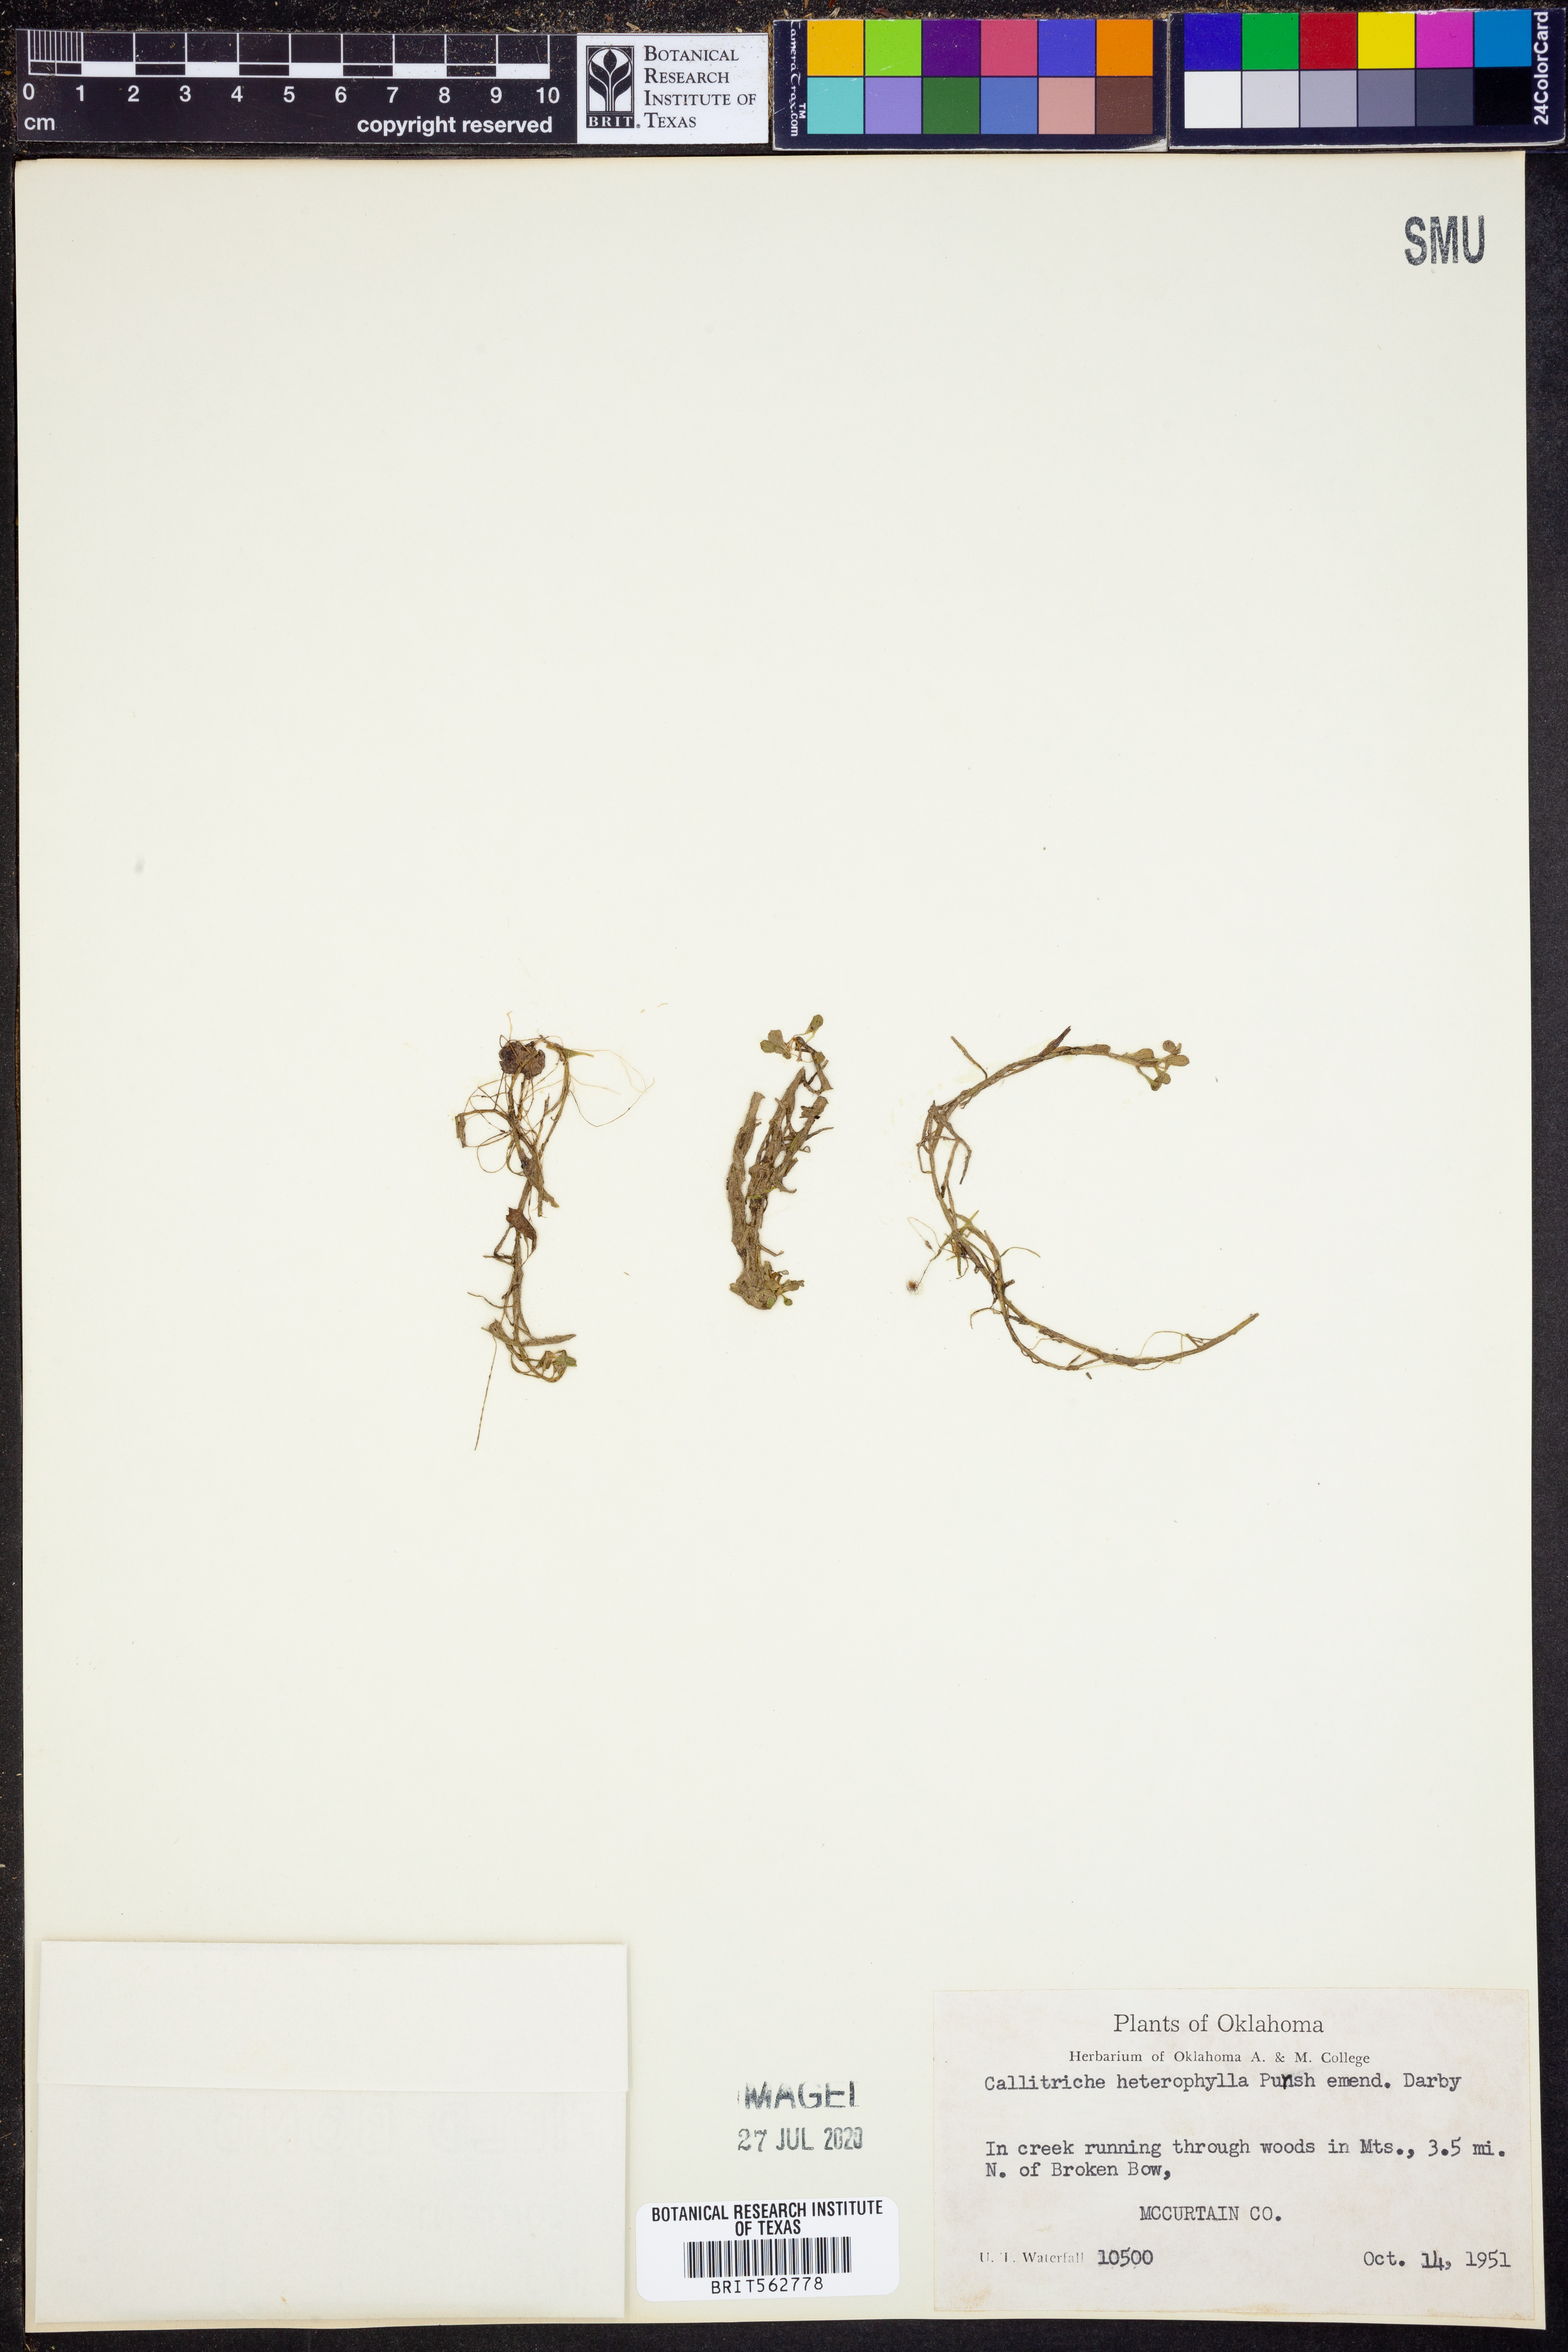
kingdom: Plantae
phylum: Tracheophyta
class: Magnoliopsida
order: Lamiales
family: Plantaginaceae
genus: Callitriche
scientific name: Callitriche heterophylla
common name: Two-headed water-starwort
